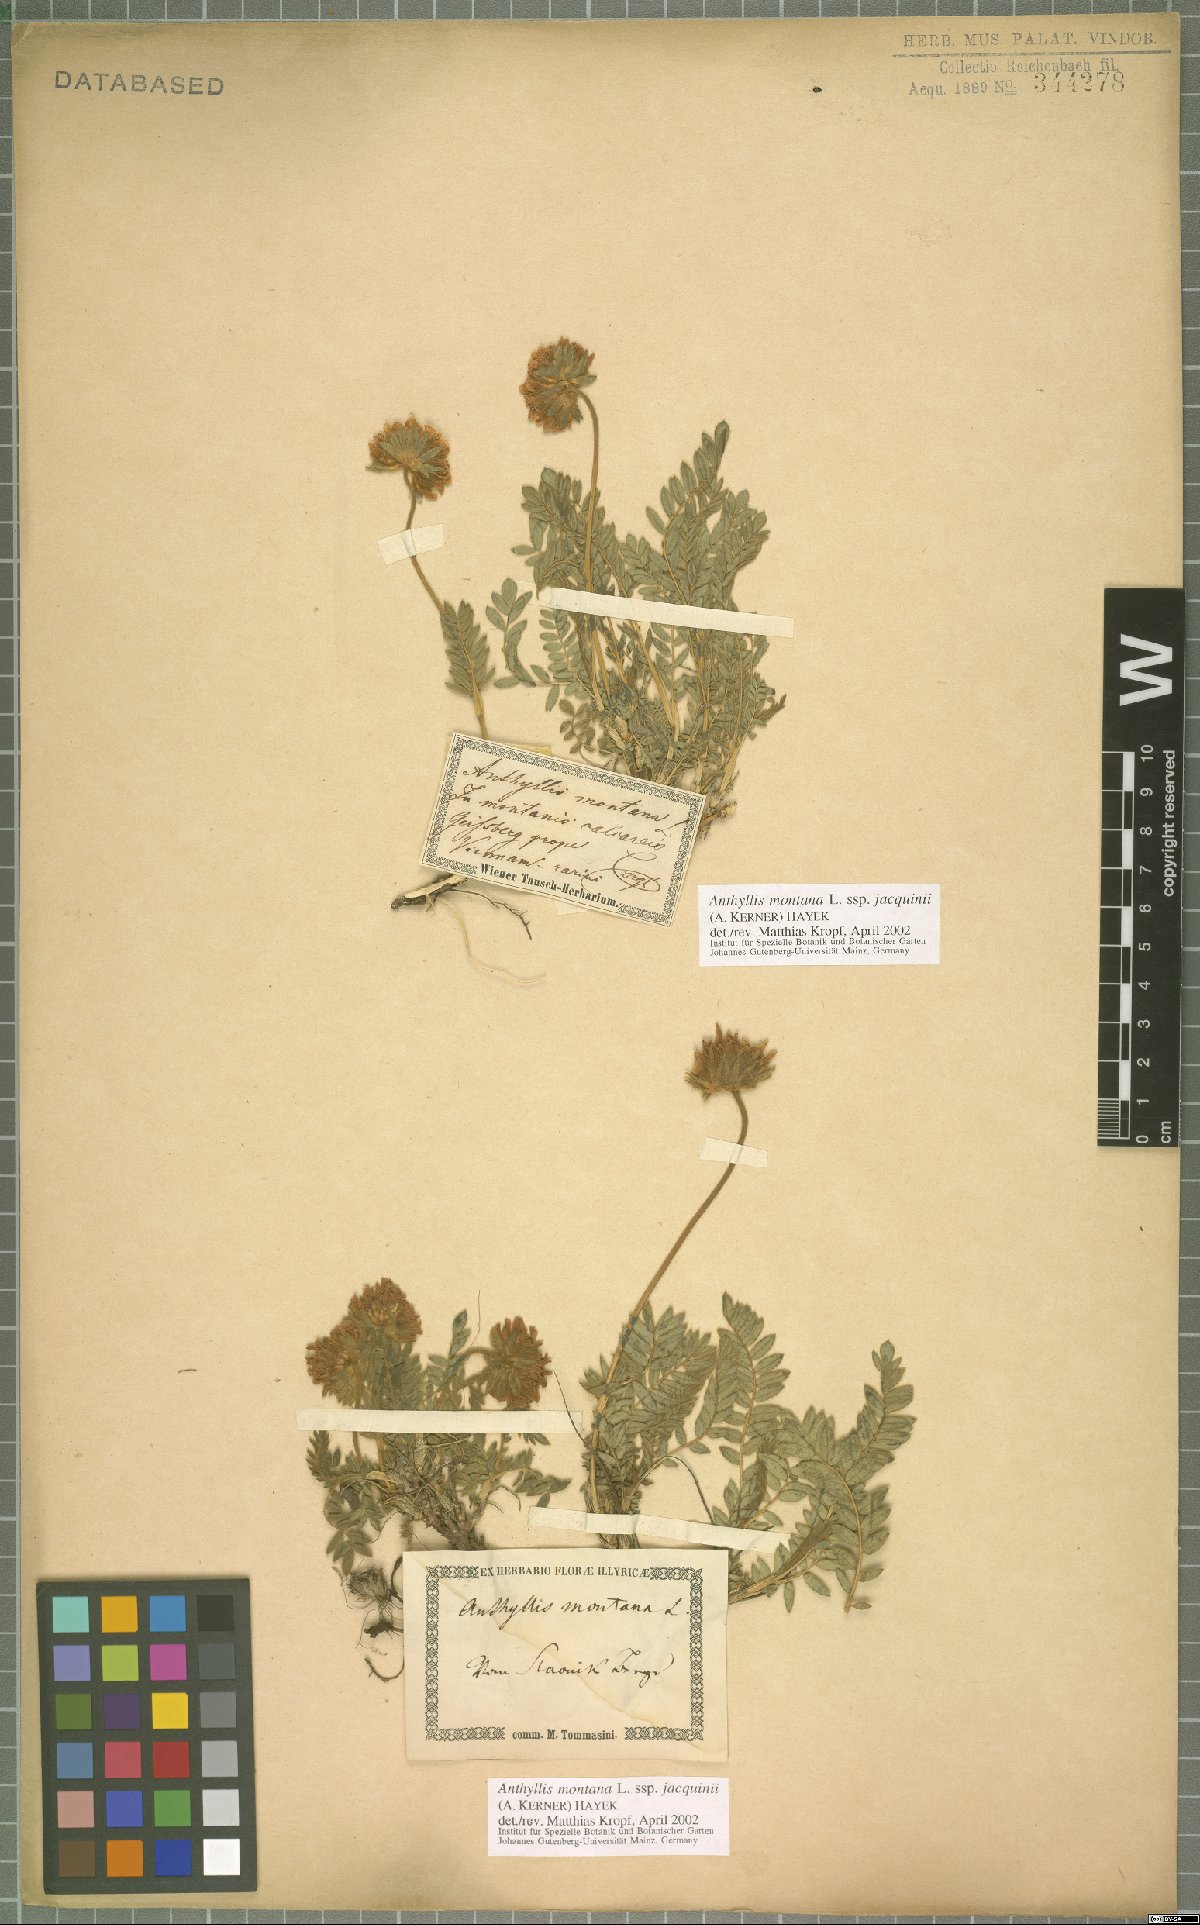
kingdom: Plantae
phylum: Tracheophyta
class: Magnoliopsida
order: Fabales
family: Fabaceae
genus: Anthyllis
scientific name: Anthyllis montana
